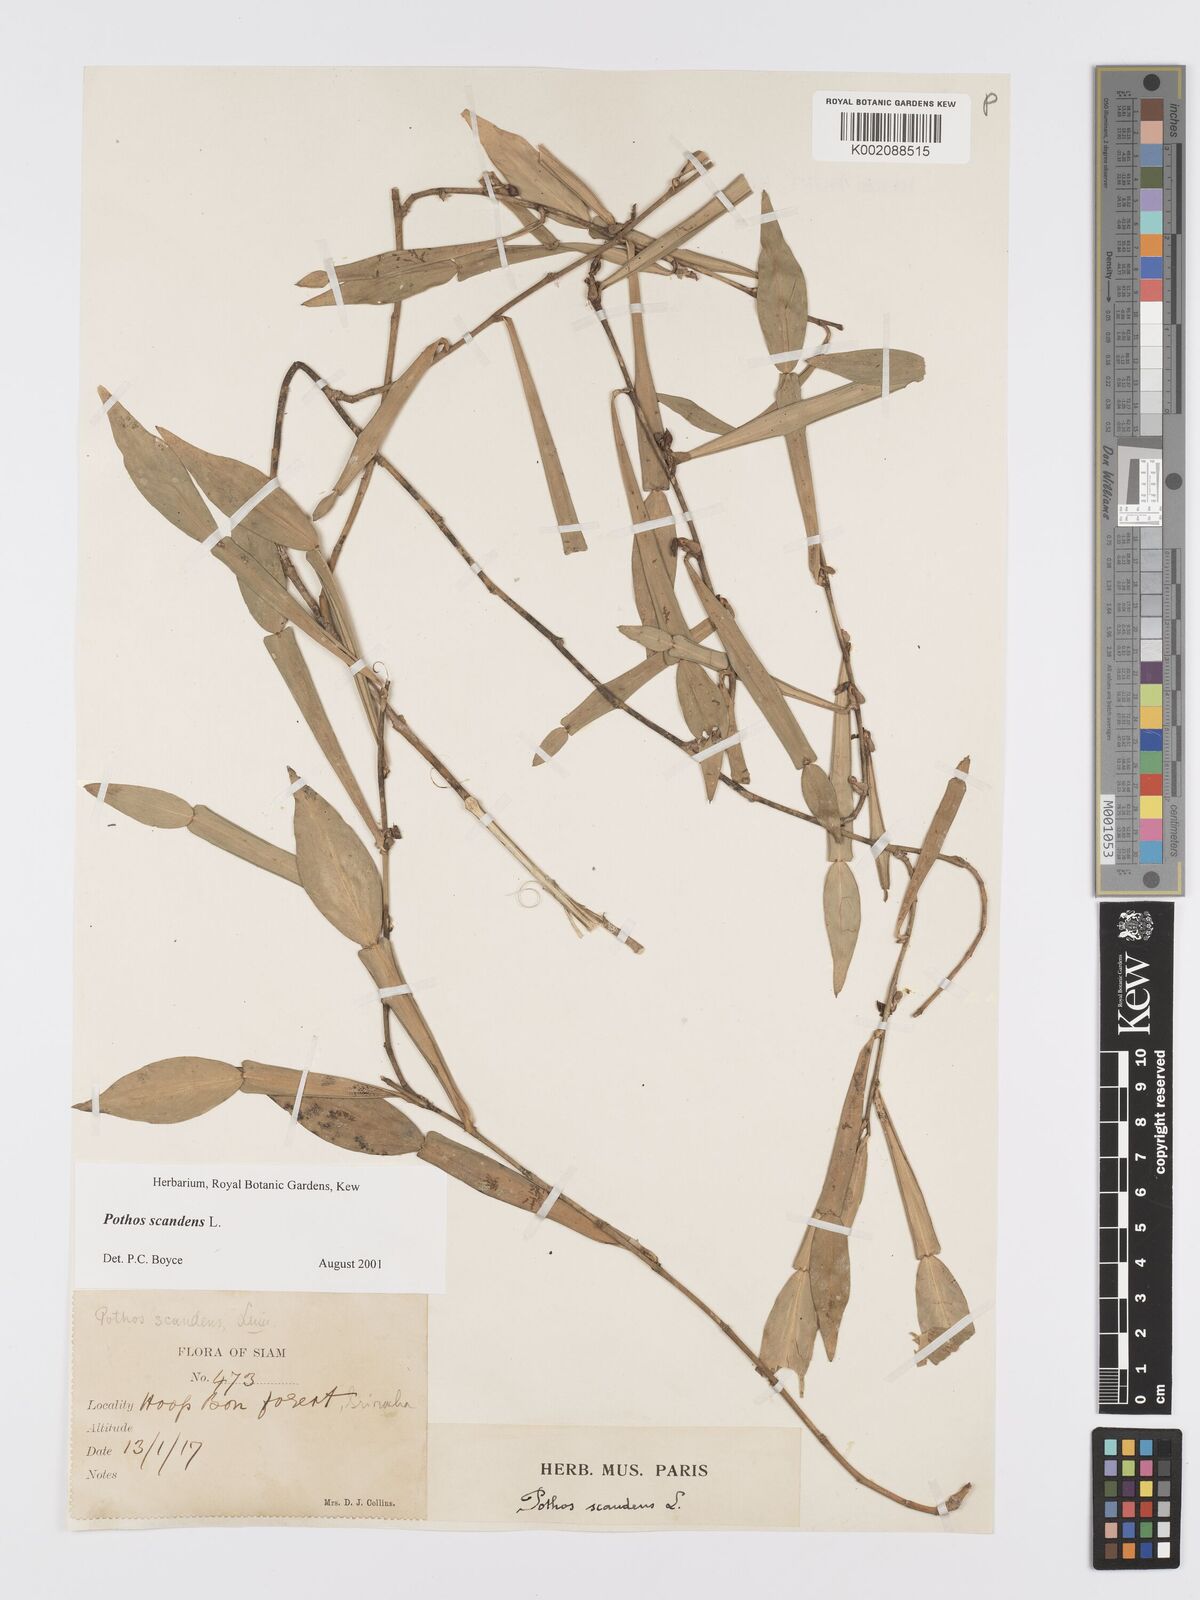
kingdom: Plantae
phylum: Tracheophyta
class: Liliopsida
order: Alismatales
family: Araceae
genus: Pothos
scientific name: Pothos scandens
